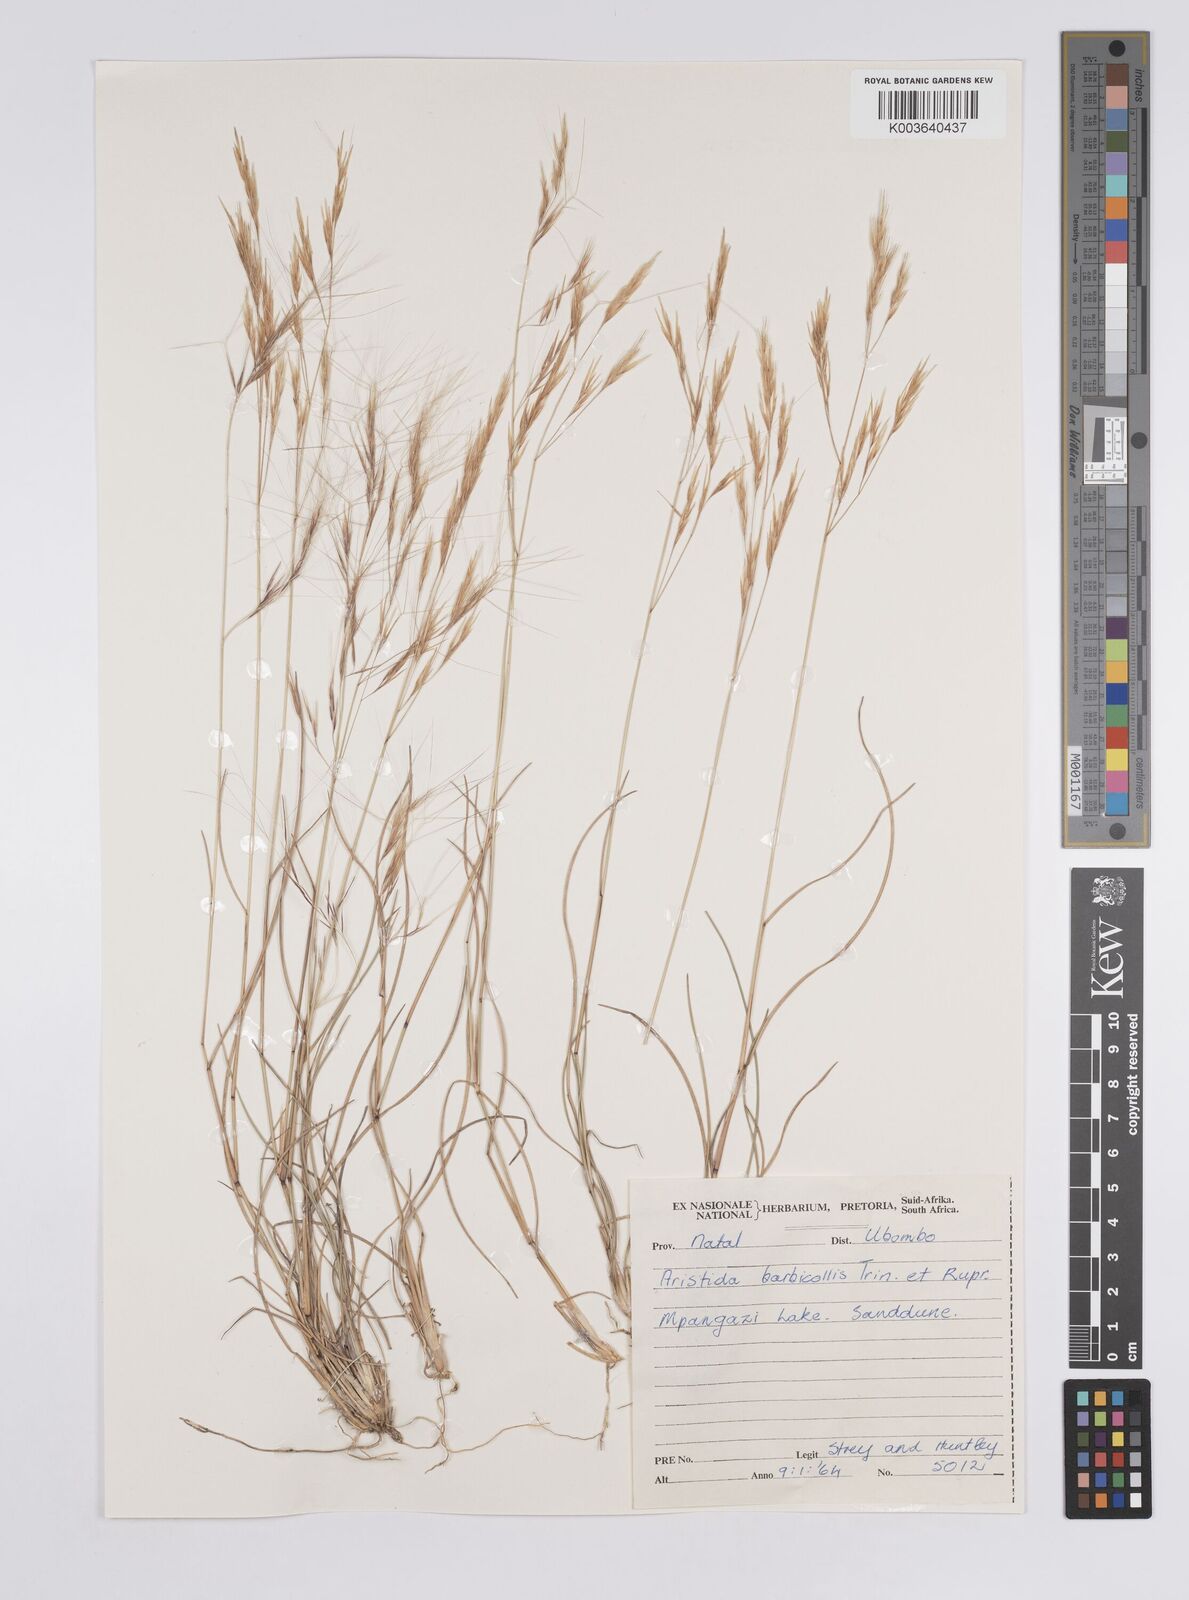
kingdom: Plantae
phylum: Tracheophyta
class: Liliopsida
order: Poales
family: Poaceae
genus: Aristida
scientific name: Aristida barbicollis
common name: Spreading prickle grass
